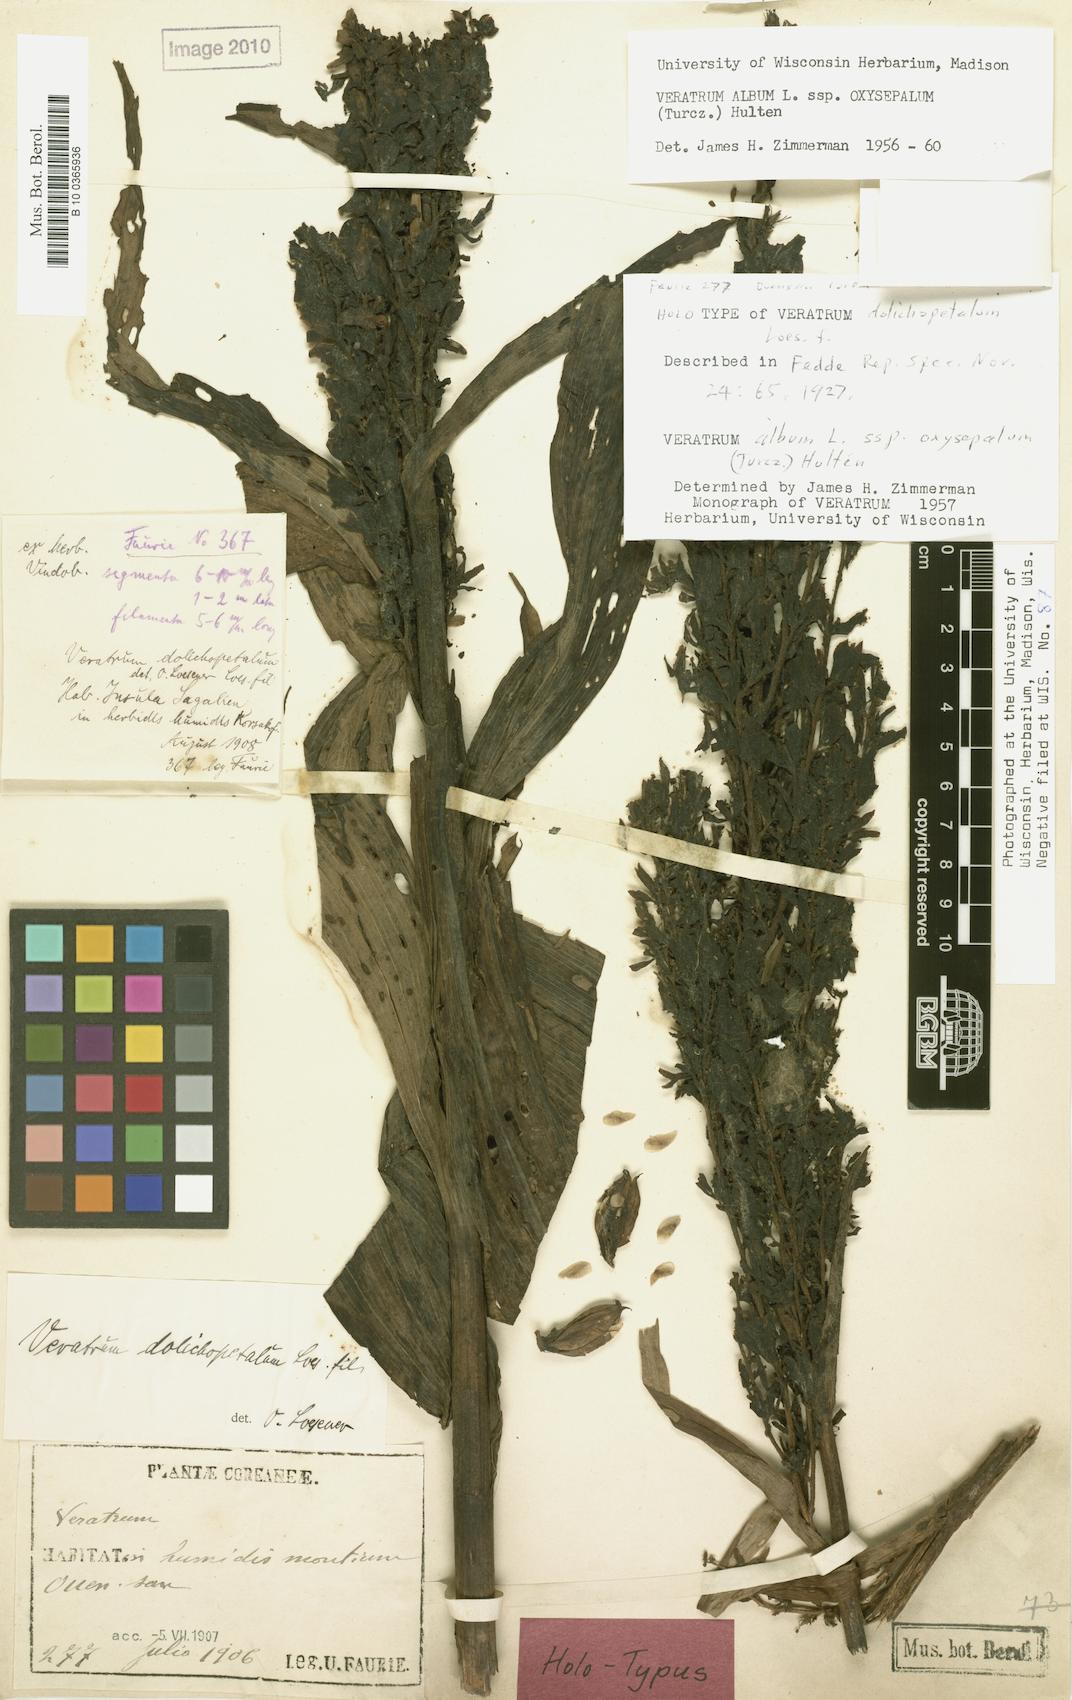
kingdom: Plantae
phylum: Tracheophyta
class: Liliopsida
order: Liliales
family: Melanthiaceae
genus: Veratrum
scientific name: Veratrum oxysepalum
